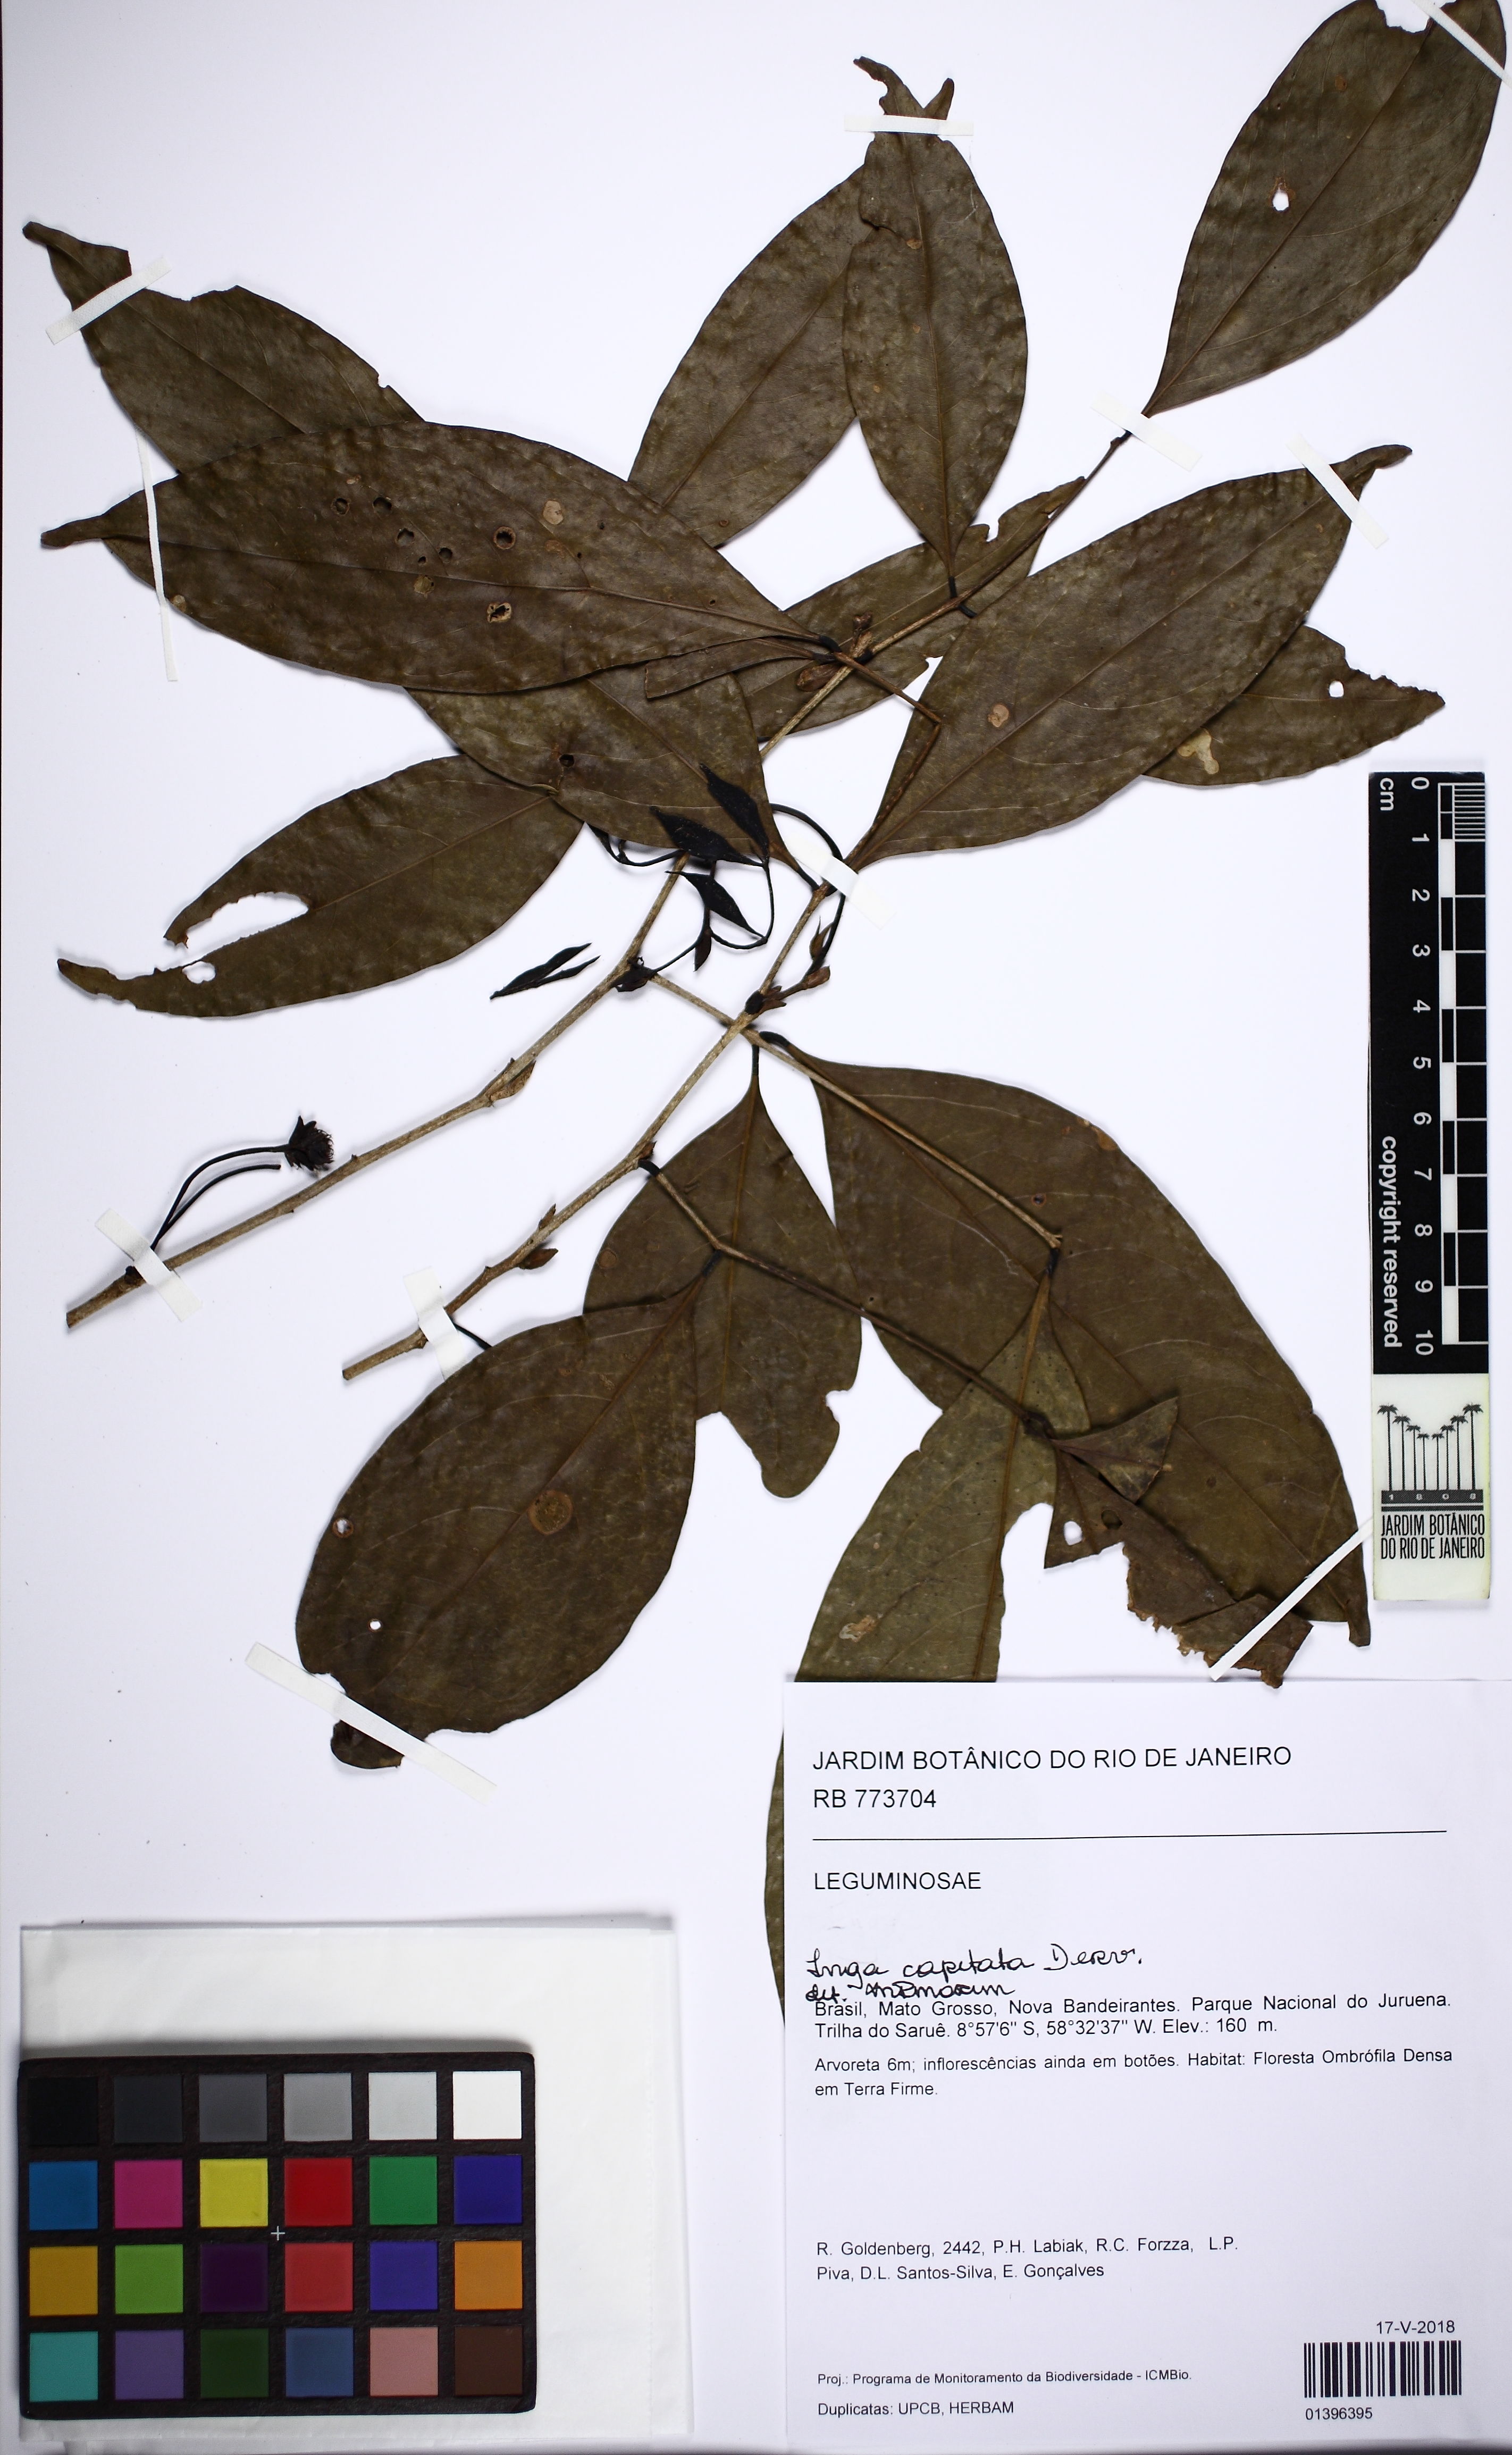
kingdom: Plantae
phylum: Tracheophyta
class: Magnoliopsida
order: Fabales
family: Fabaceae
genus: Inga
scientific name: Inga capitata
